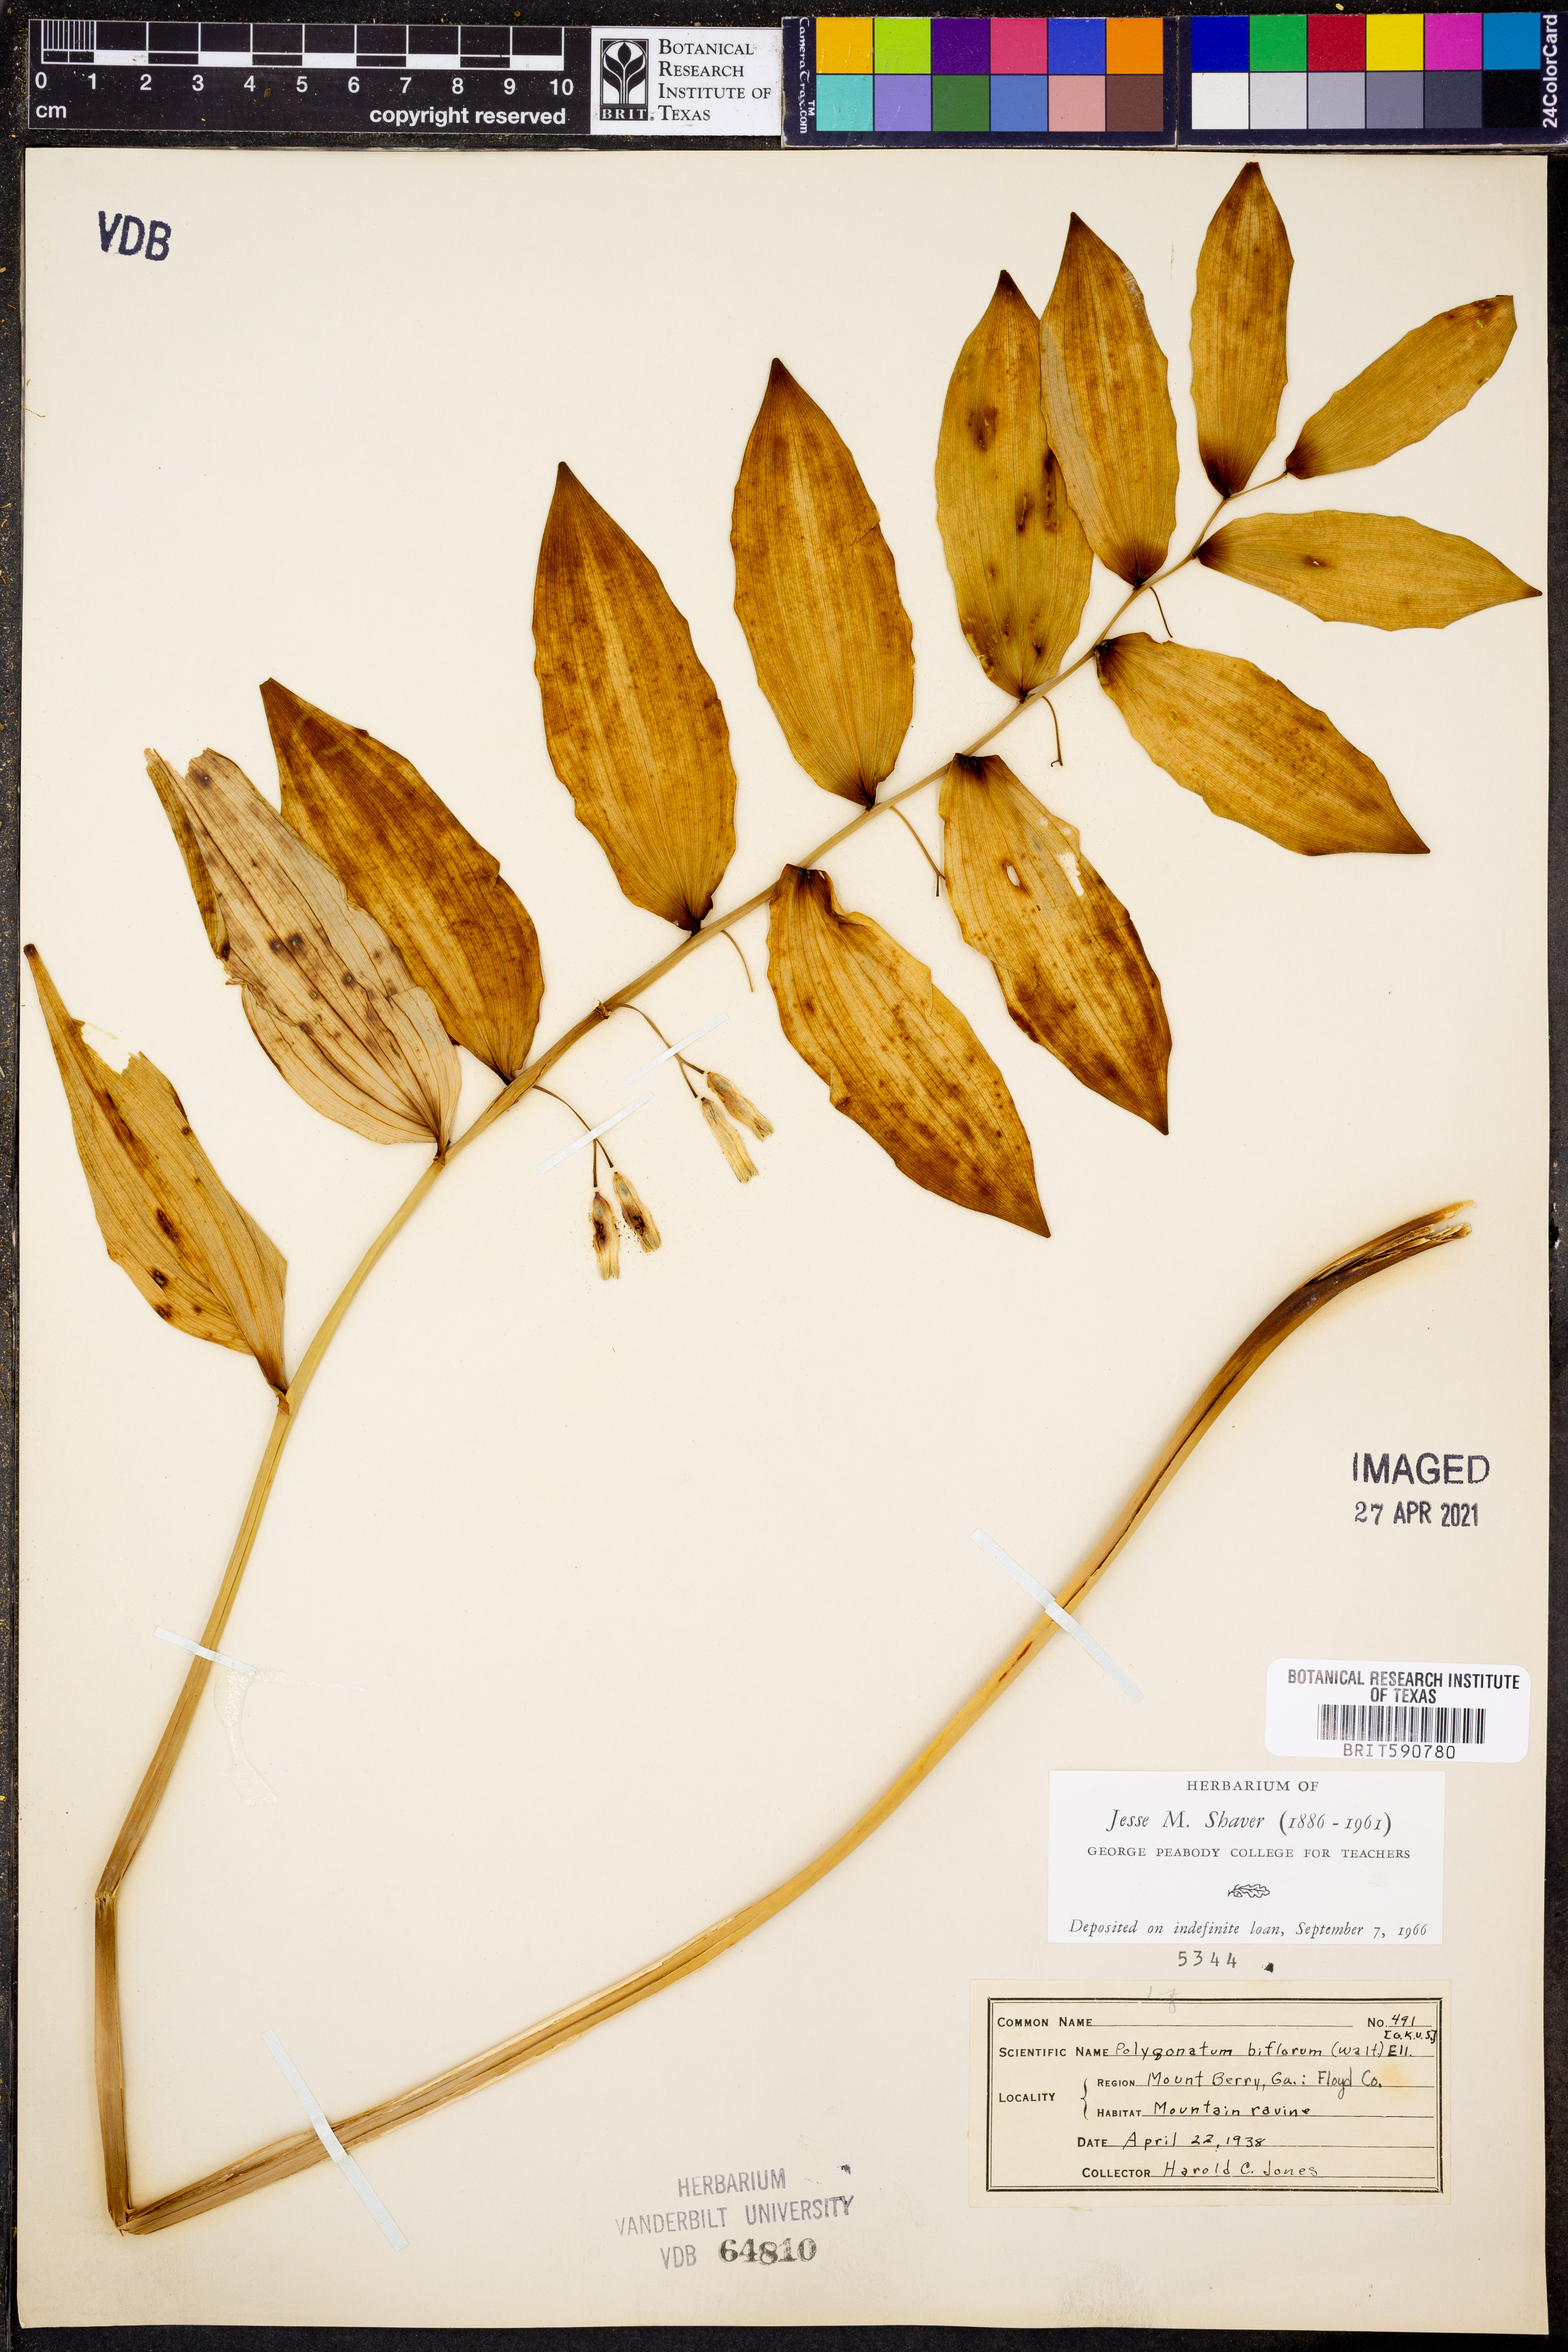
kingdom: Plantae
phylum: Tracheophyta
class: Liliopsida
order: Asparagales
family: Asparagaceae
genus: Polygonatum
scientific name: Polygonatum biflorum
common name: American solomon's-seal
